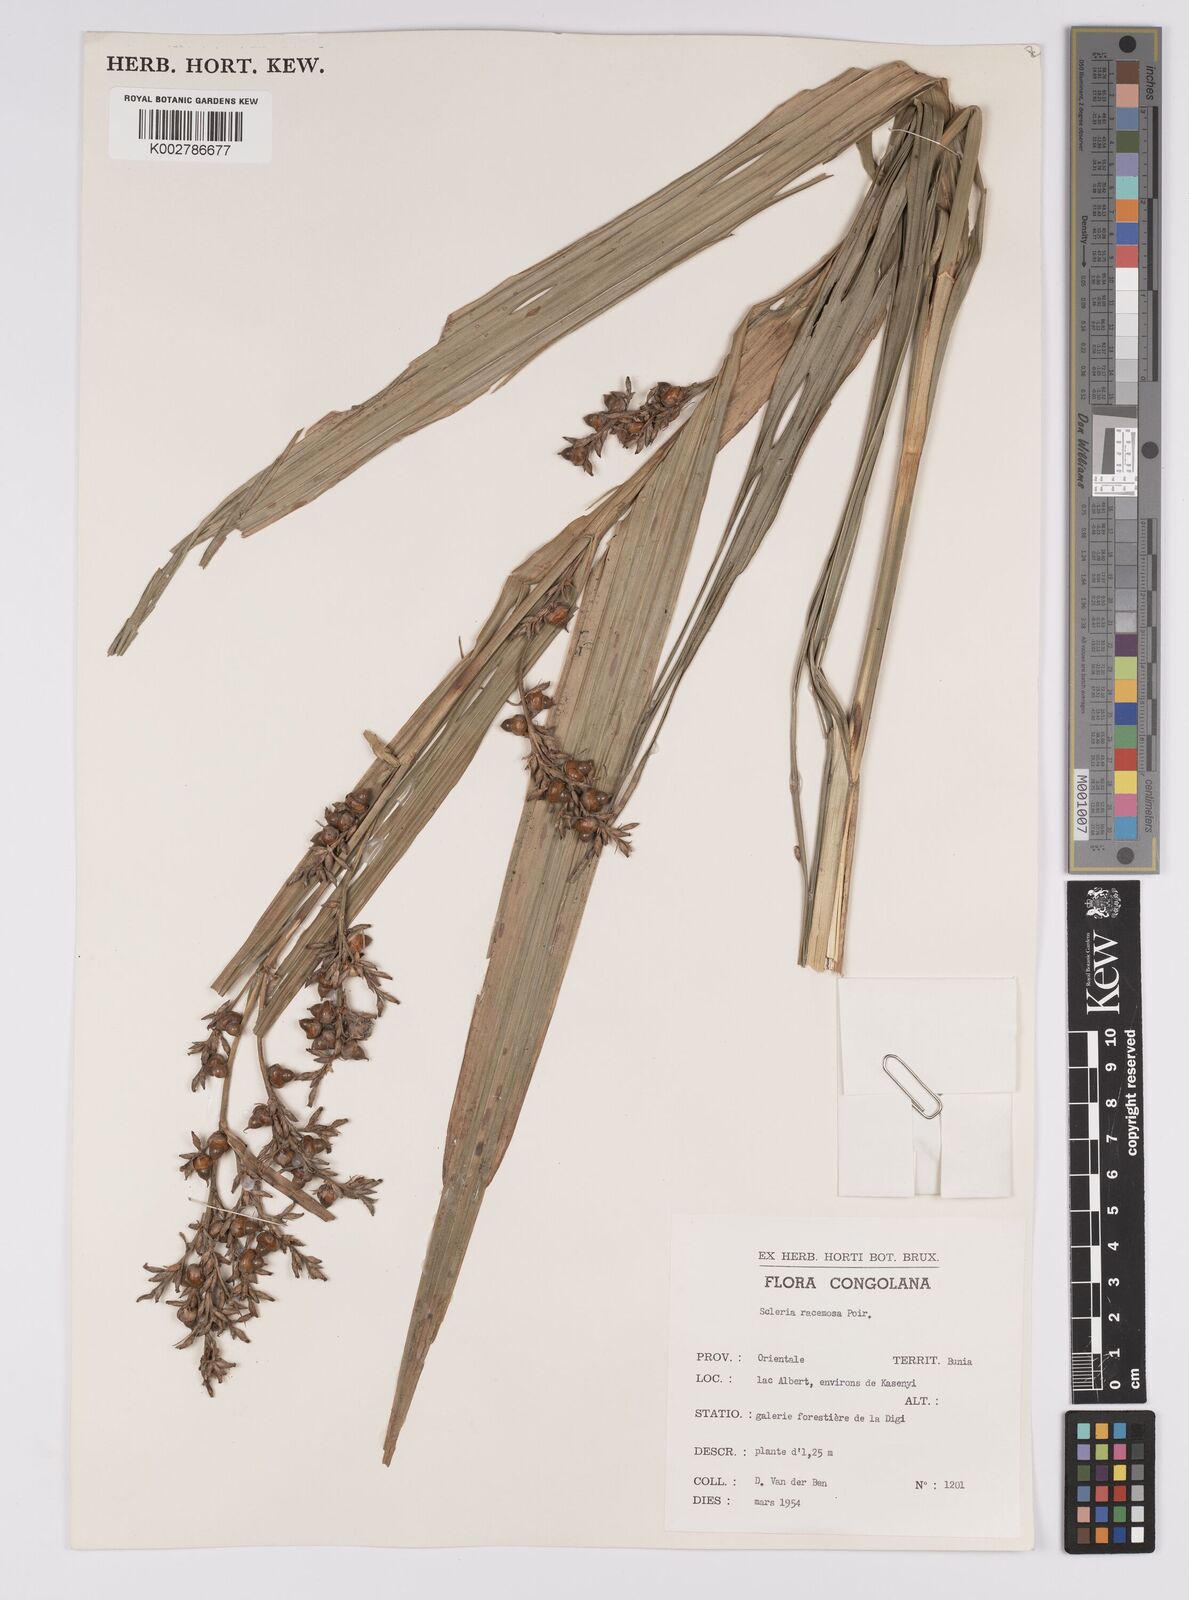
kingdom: Plantae
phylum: Tracheophyta
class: Liliopsida
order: Poales
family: Cyperaceae
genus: Scleria
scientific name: Scleria racemosa
